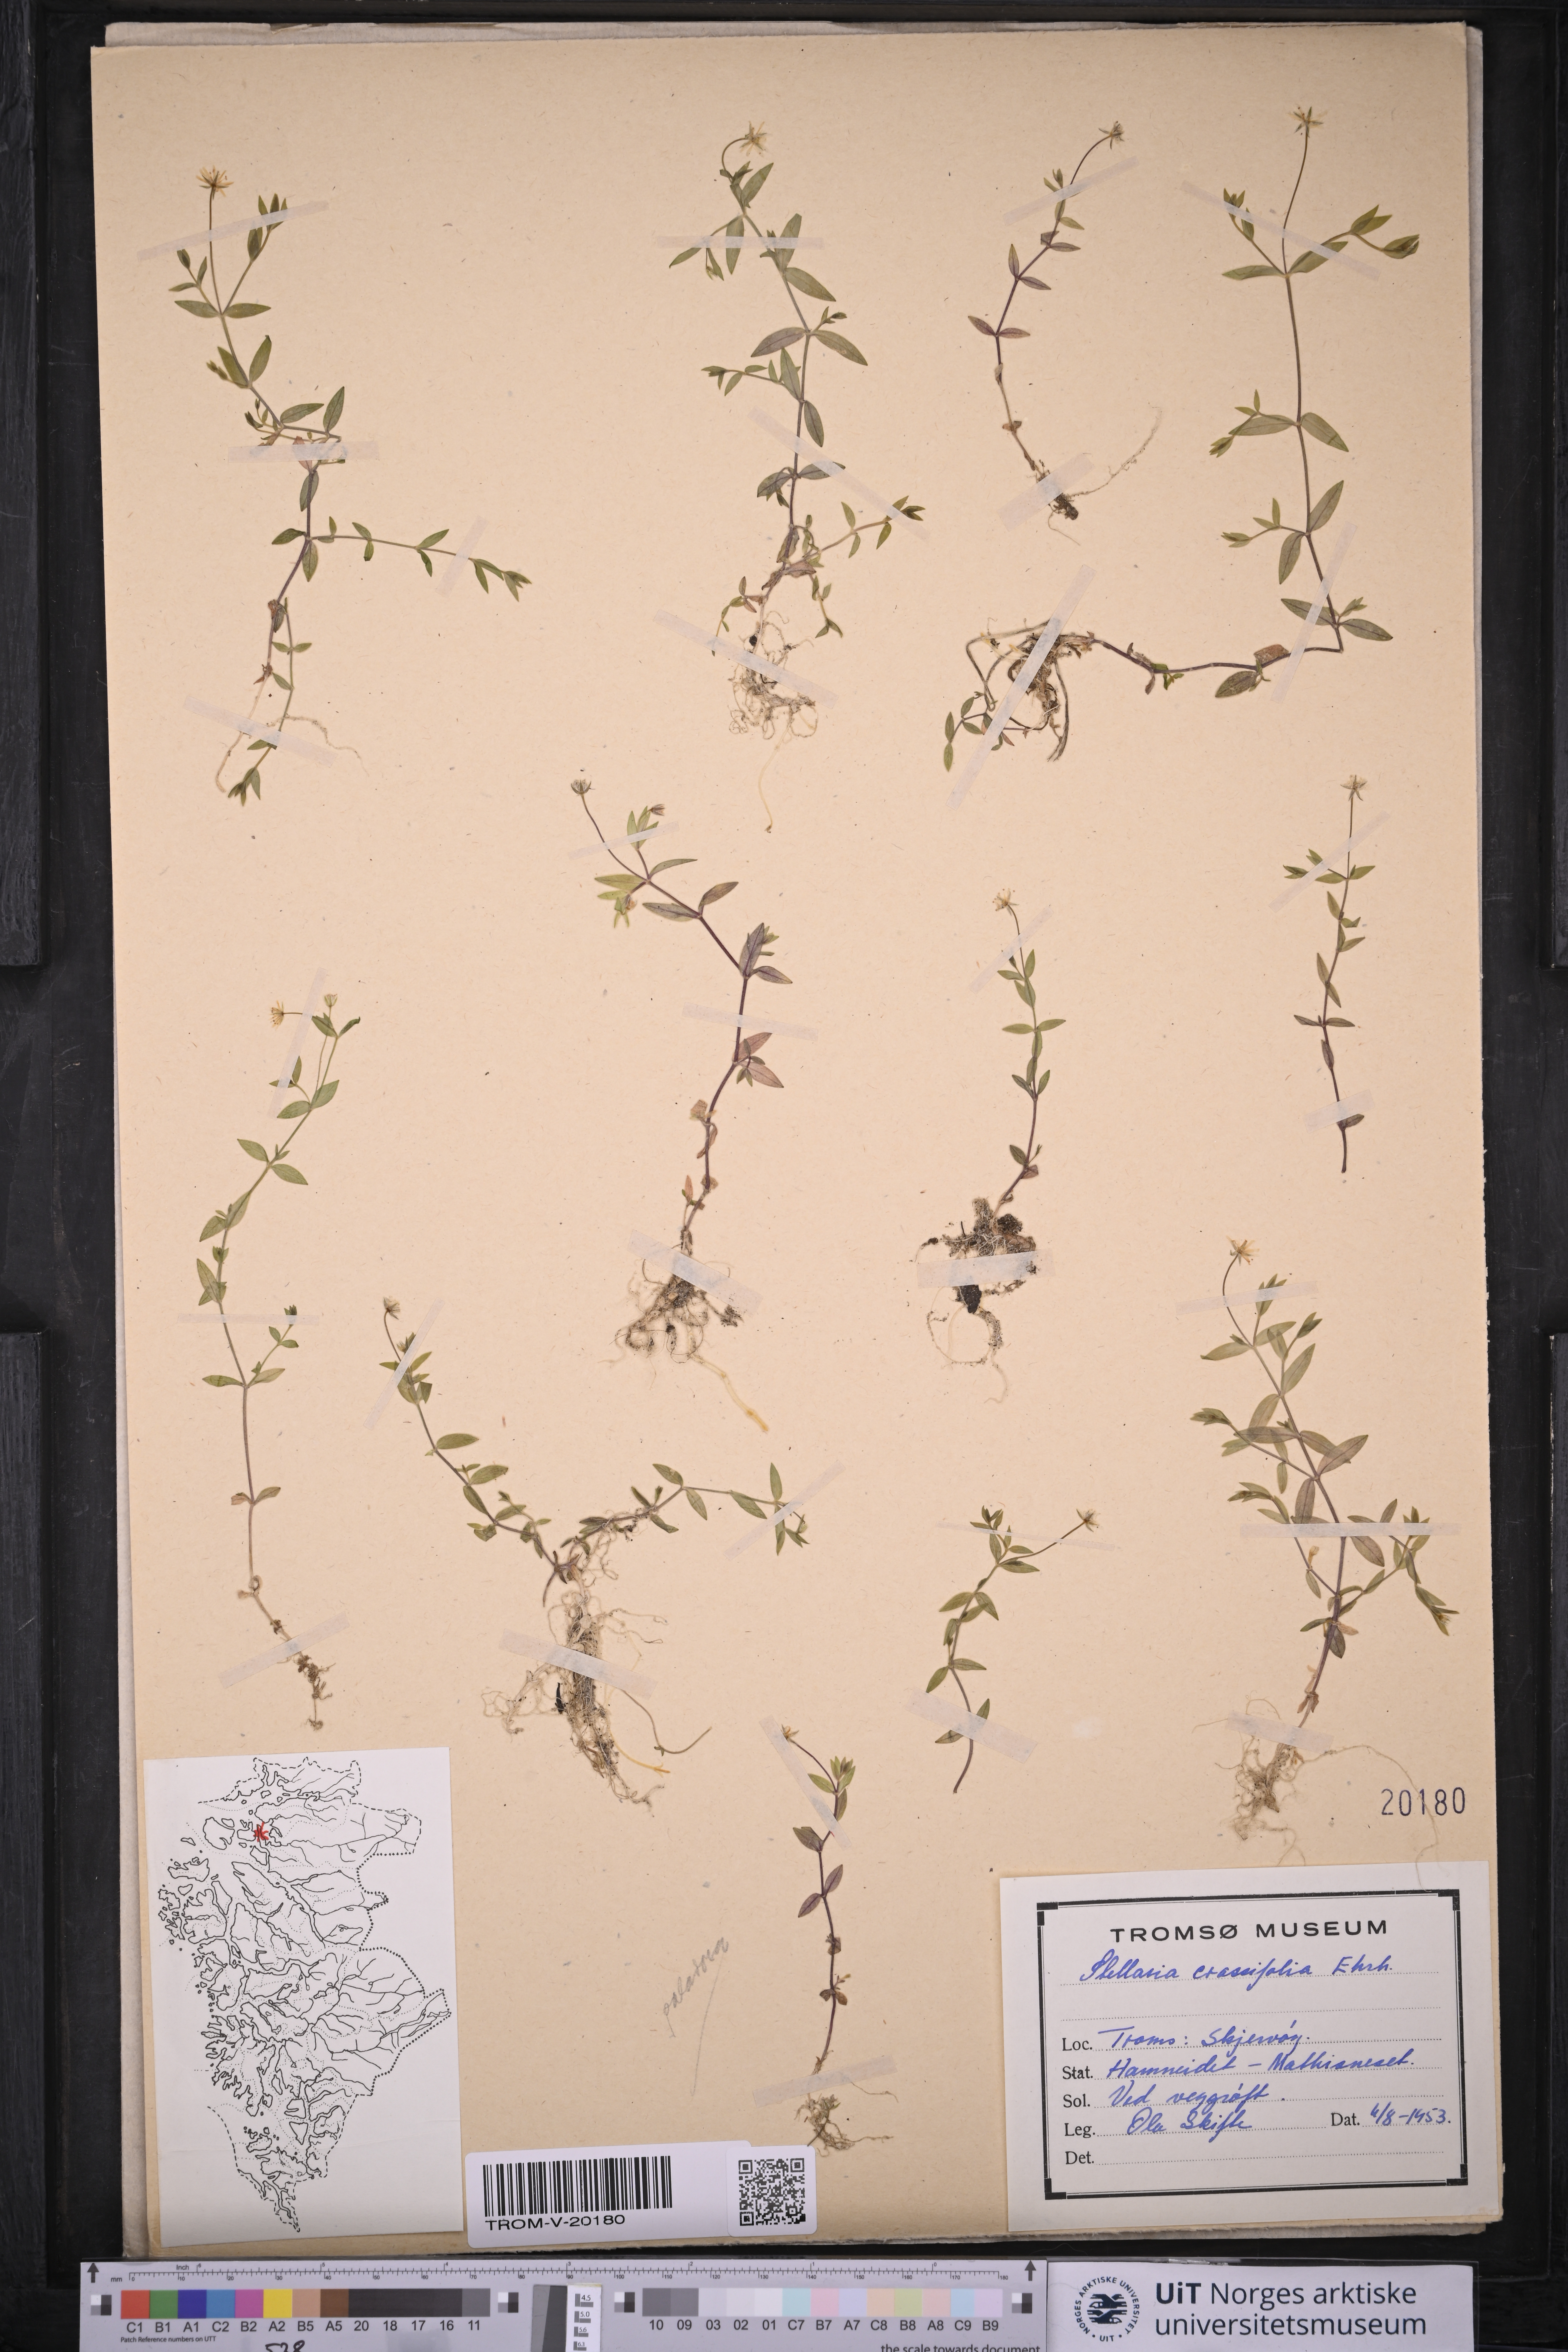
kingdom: Plantae
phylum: Tracheophyta
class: Magnoliopsida
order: Caryophyllales
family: Caryophyllaceae
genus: Stellaria
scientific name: Stellaria crassifolia
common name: Fleshy starwort
